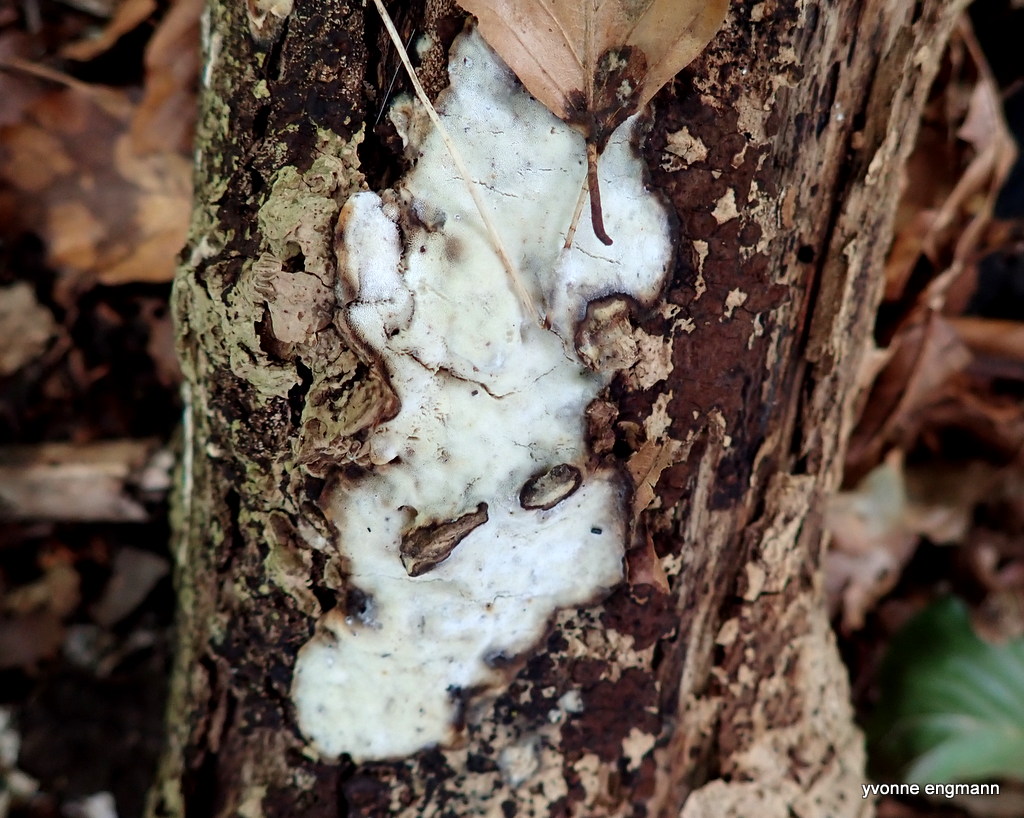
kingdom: Fungi
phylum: Basidiomycota
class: Agaricomycetes
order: Polyporales
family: Incrustoporiaceae
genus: Skeletocutis
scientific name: Skeletocutis nemoralis
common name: stor krystalporesvamp
